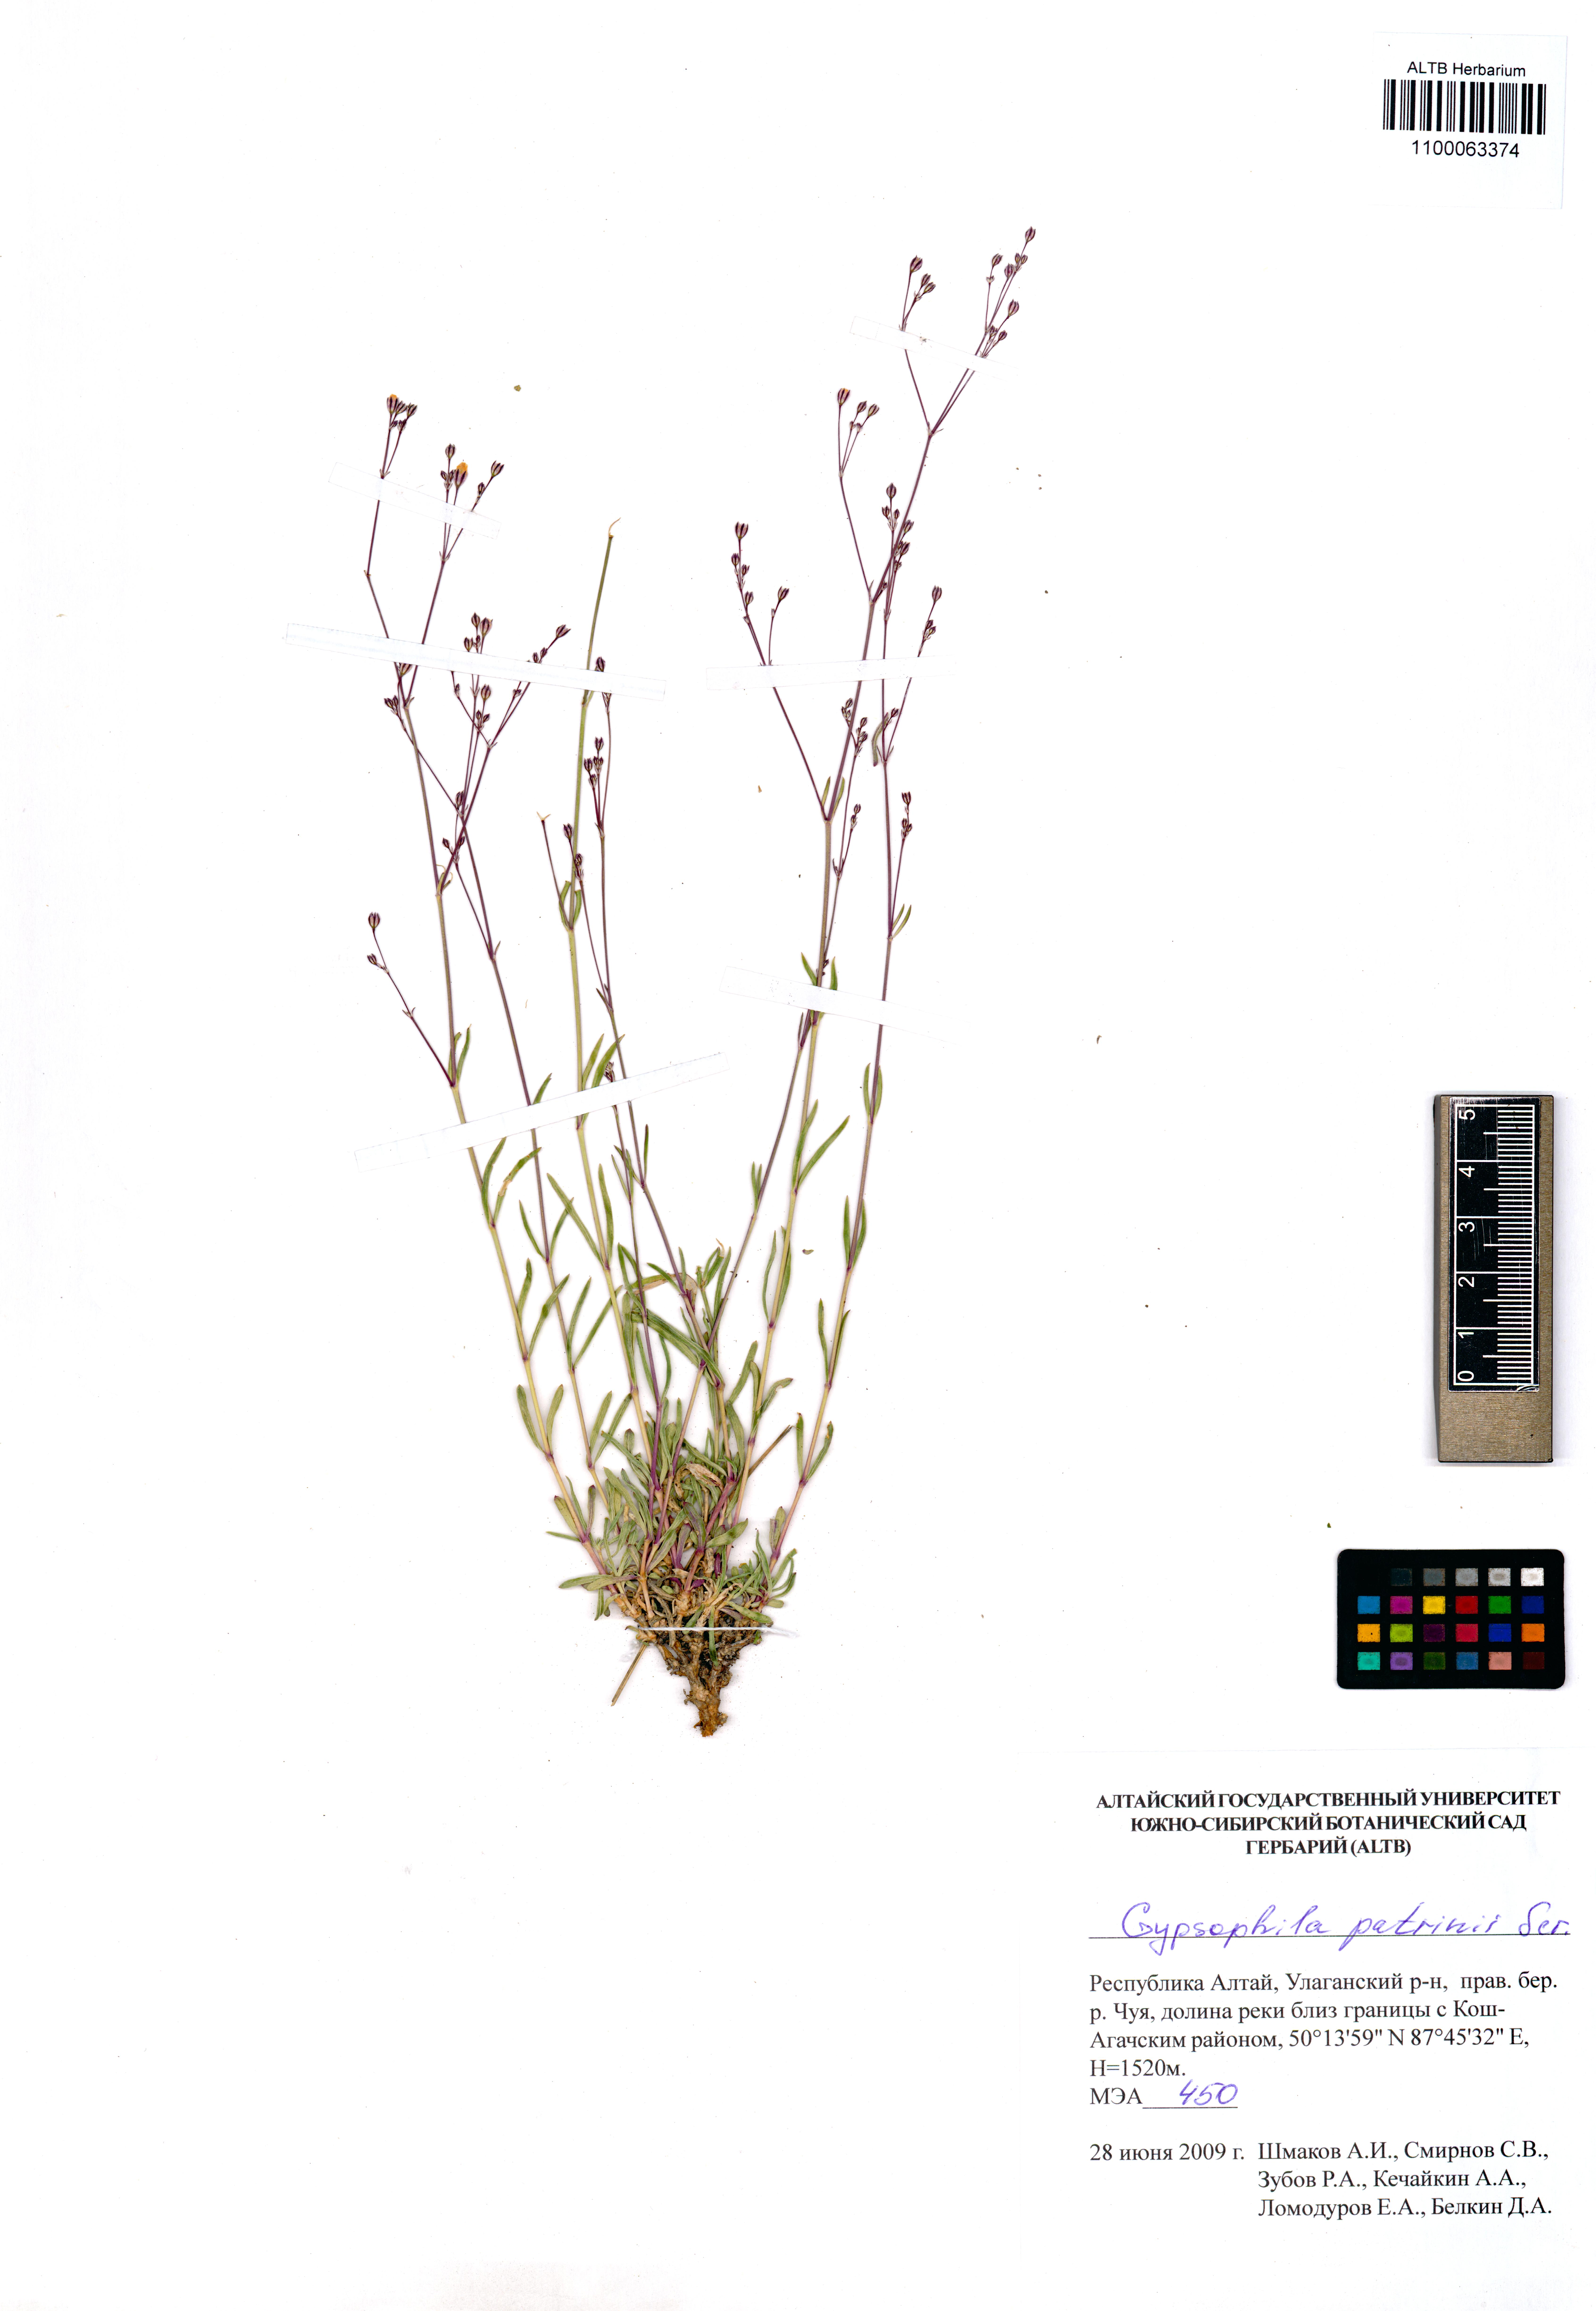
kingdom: Plantae
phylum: Tracheophyta
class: Magnoliopsida
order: Caryophyllales
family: Caryophyllaceae
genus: Gypsophila
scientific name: Gypsophila patrinii
